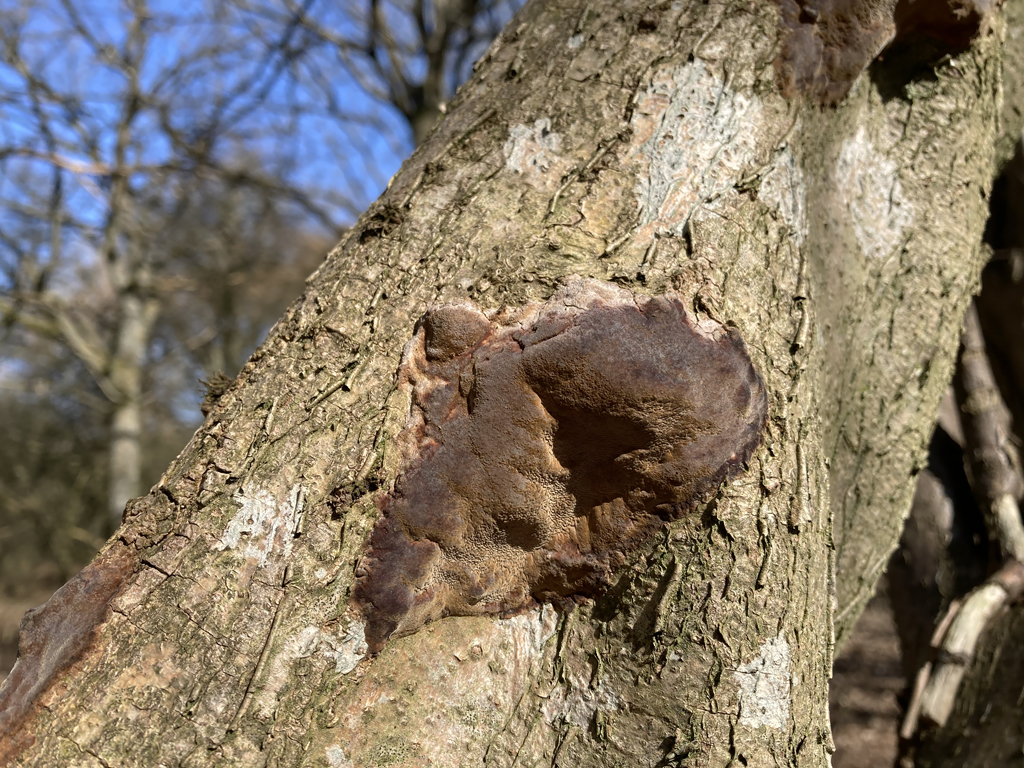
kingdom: Fungi
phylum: Basidiomycota
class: Agaricomycetes
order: Hymenochaetales
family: Hymenochaetaceae
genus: Fuscoporia
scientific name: Fuscoporia ferrea
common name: skorpe-ildporesvamp
